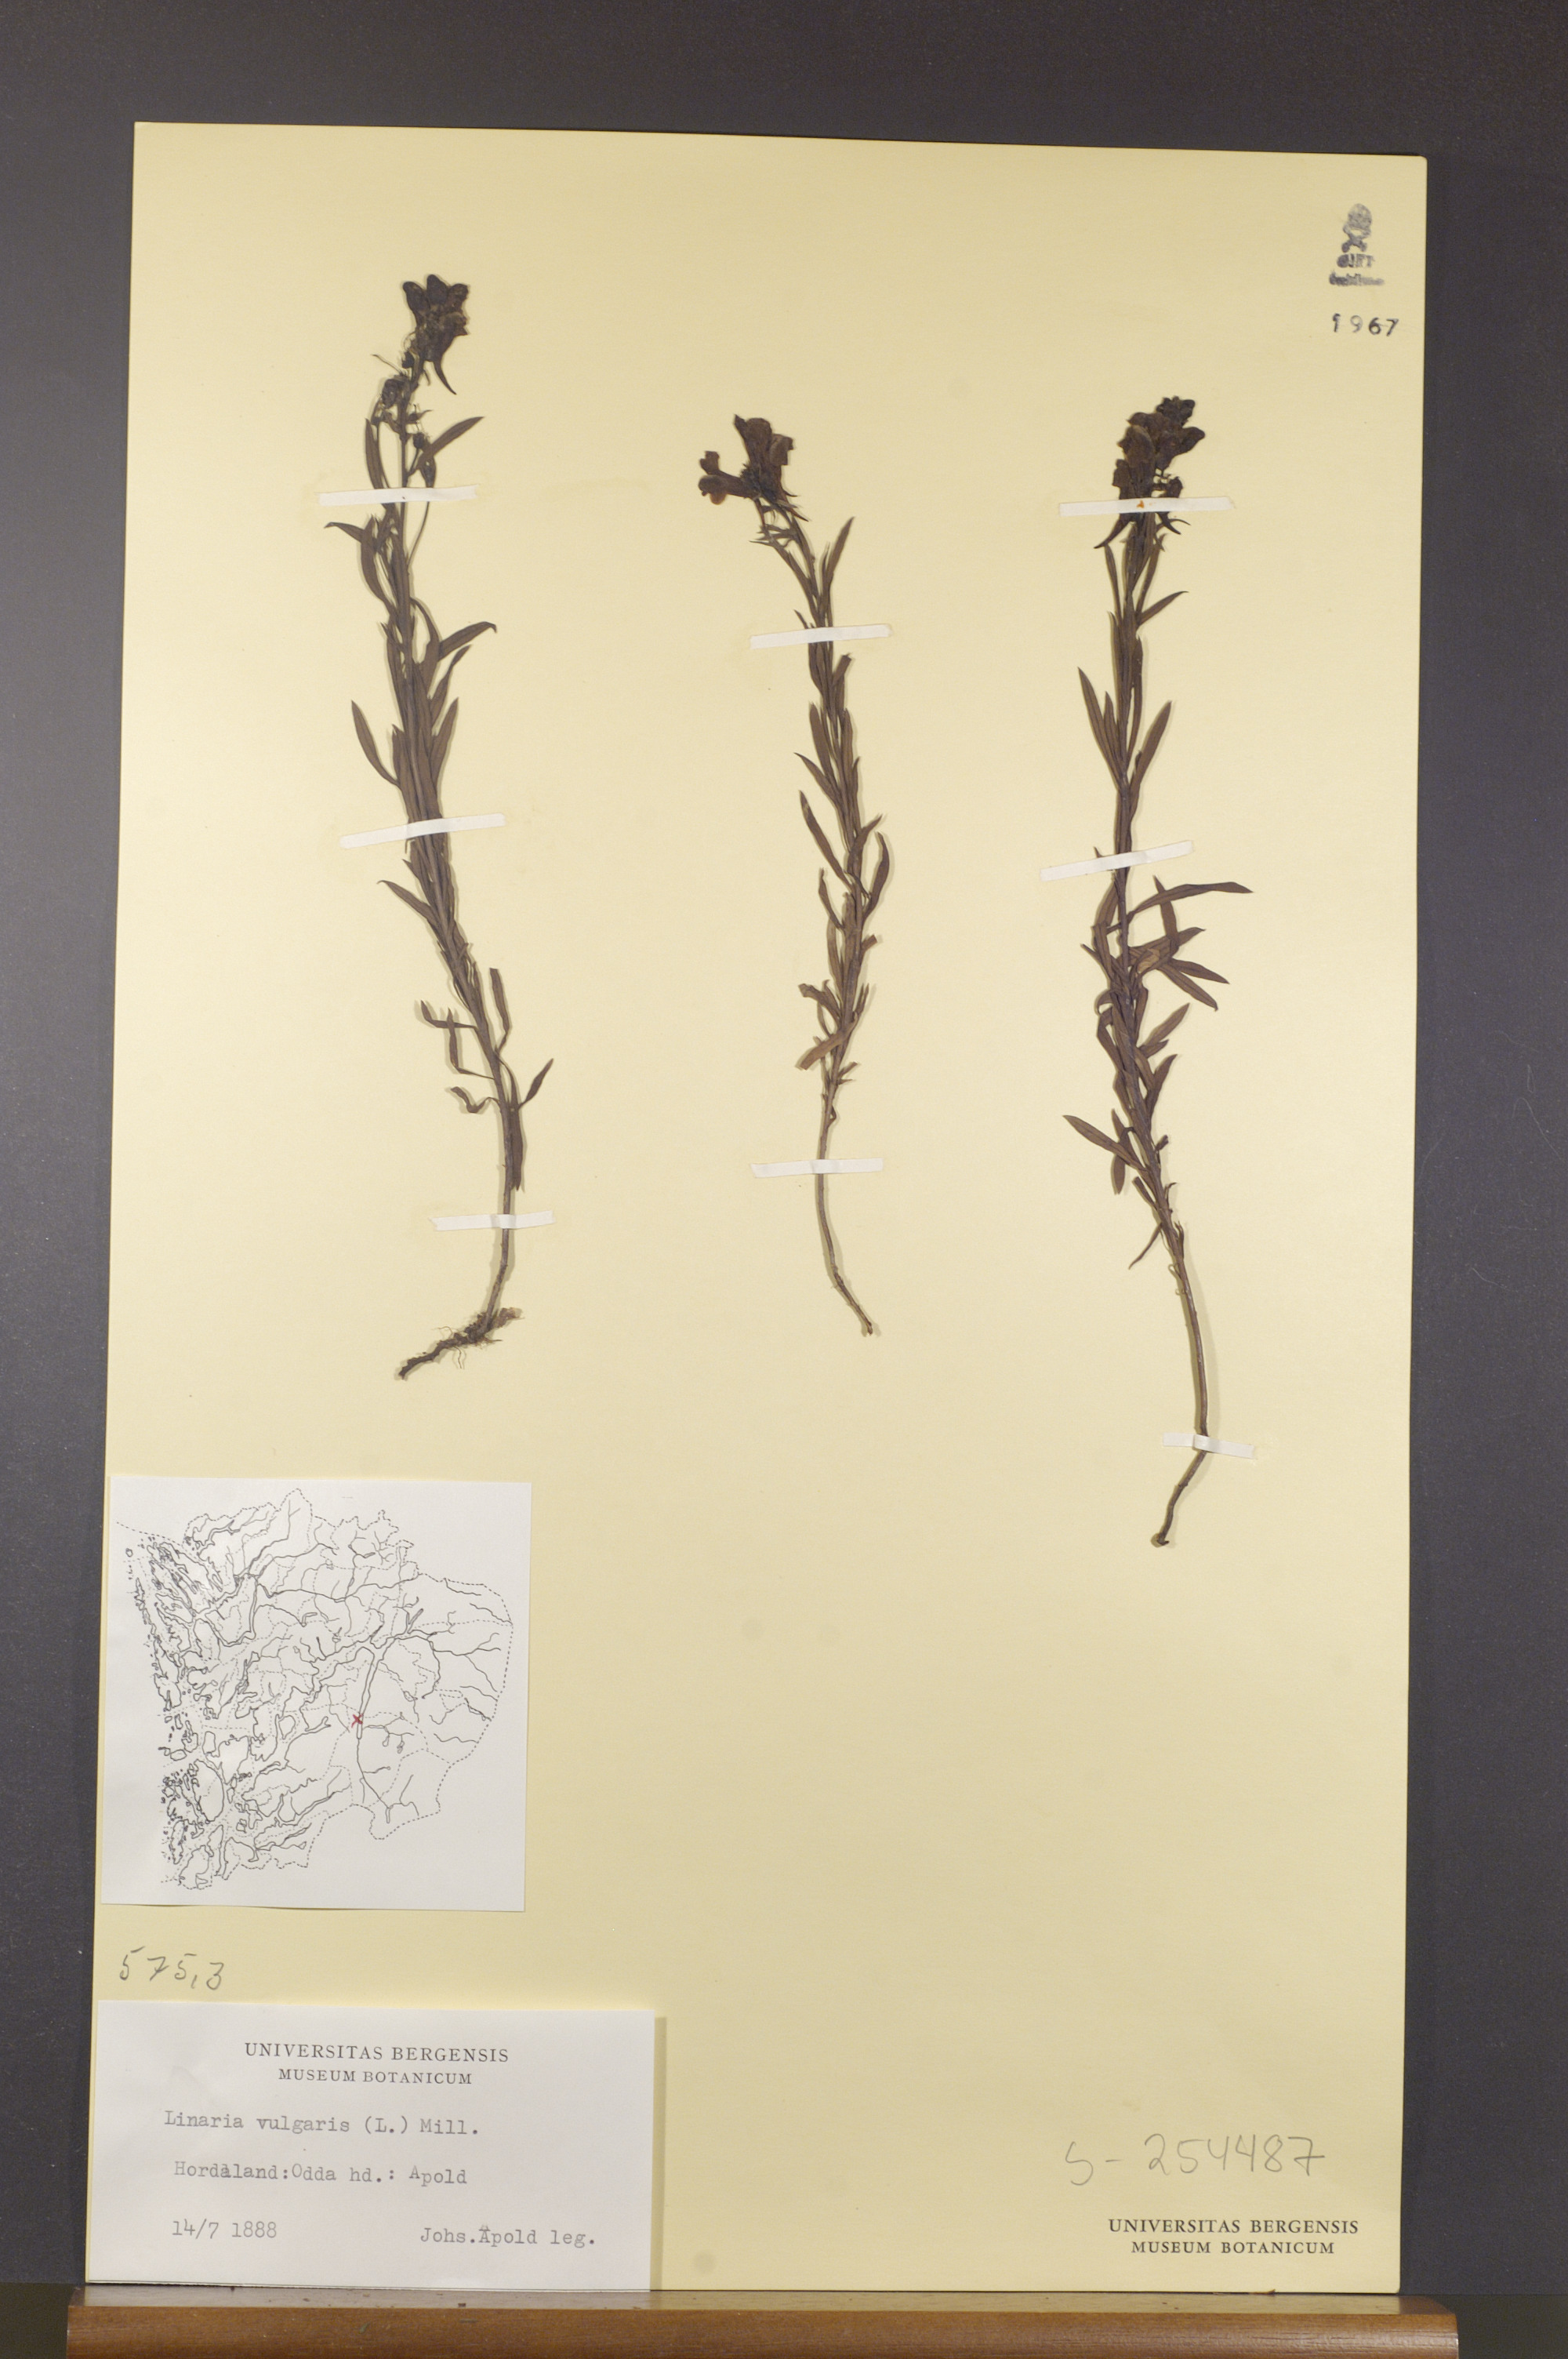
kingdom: Plantae
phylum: Tracheophyta
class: Magnoliopsida
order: Lamiales
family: Plantaginaceae
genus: Linaria
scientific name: Linaria vulgaris
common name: Butter and eggs
